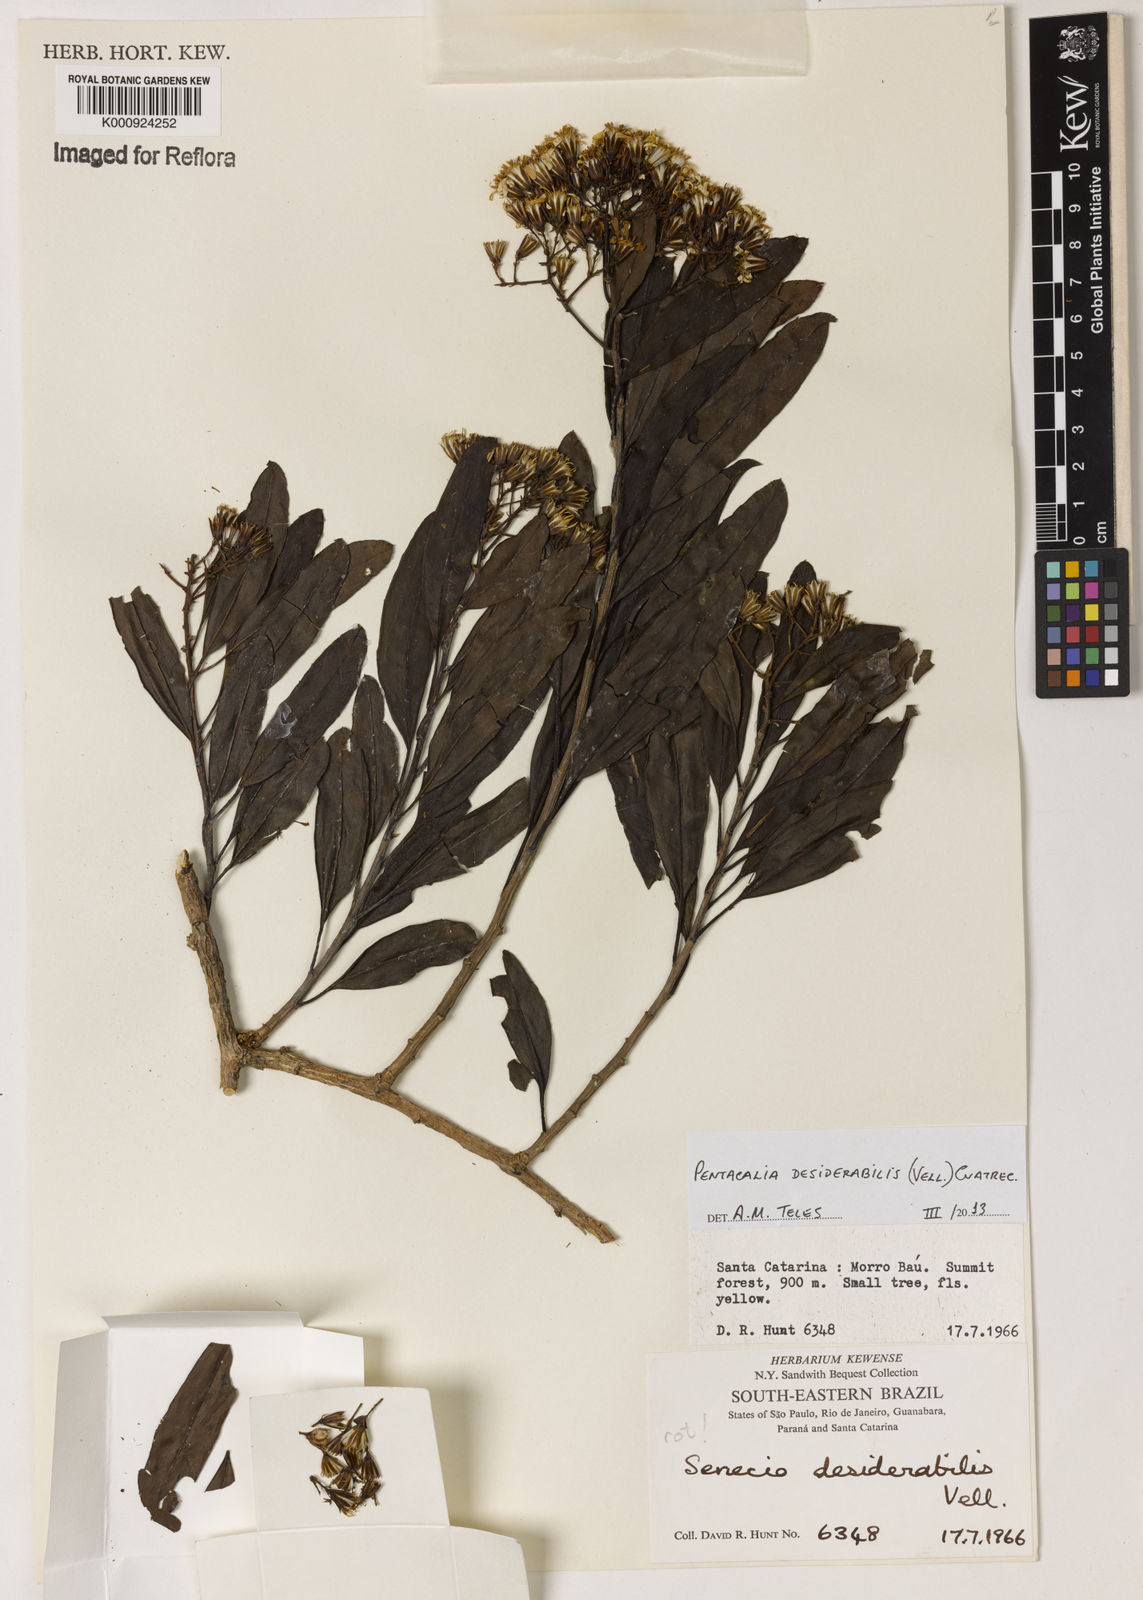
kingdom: Plantae
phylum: Tracheophyta
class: Magnoliopsida
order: Asterales
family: Asteraceae
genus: Pentacalia
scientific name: Pentacalia desiderabilis
